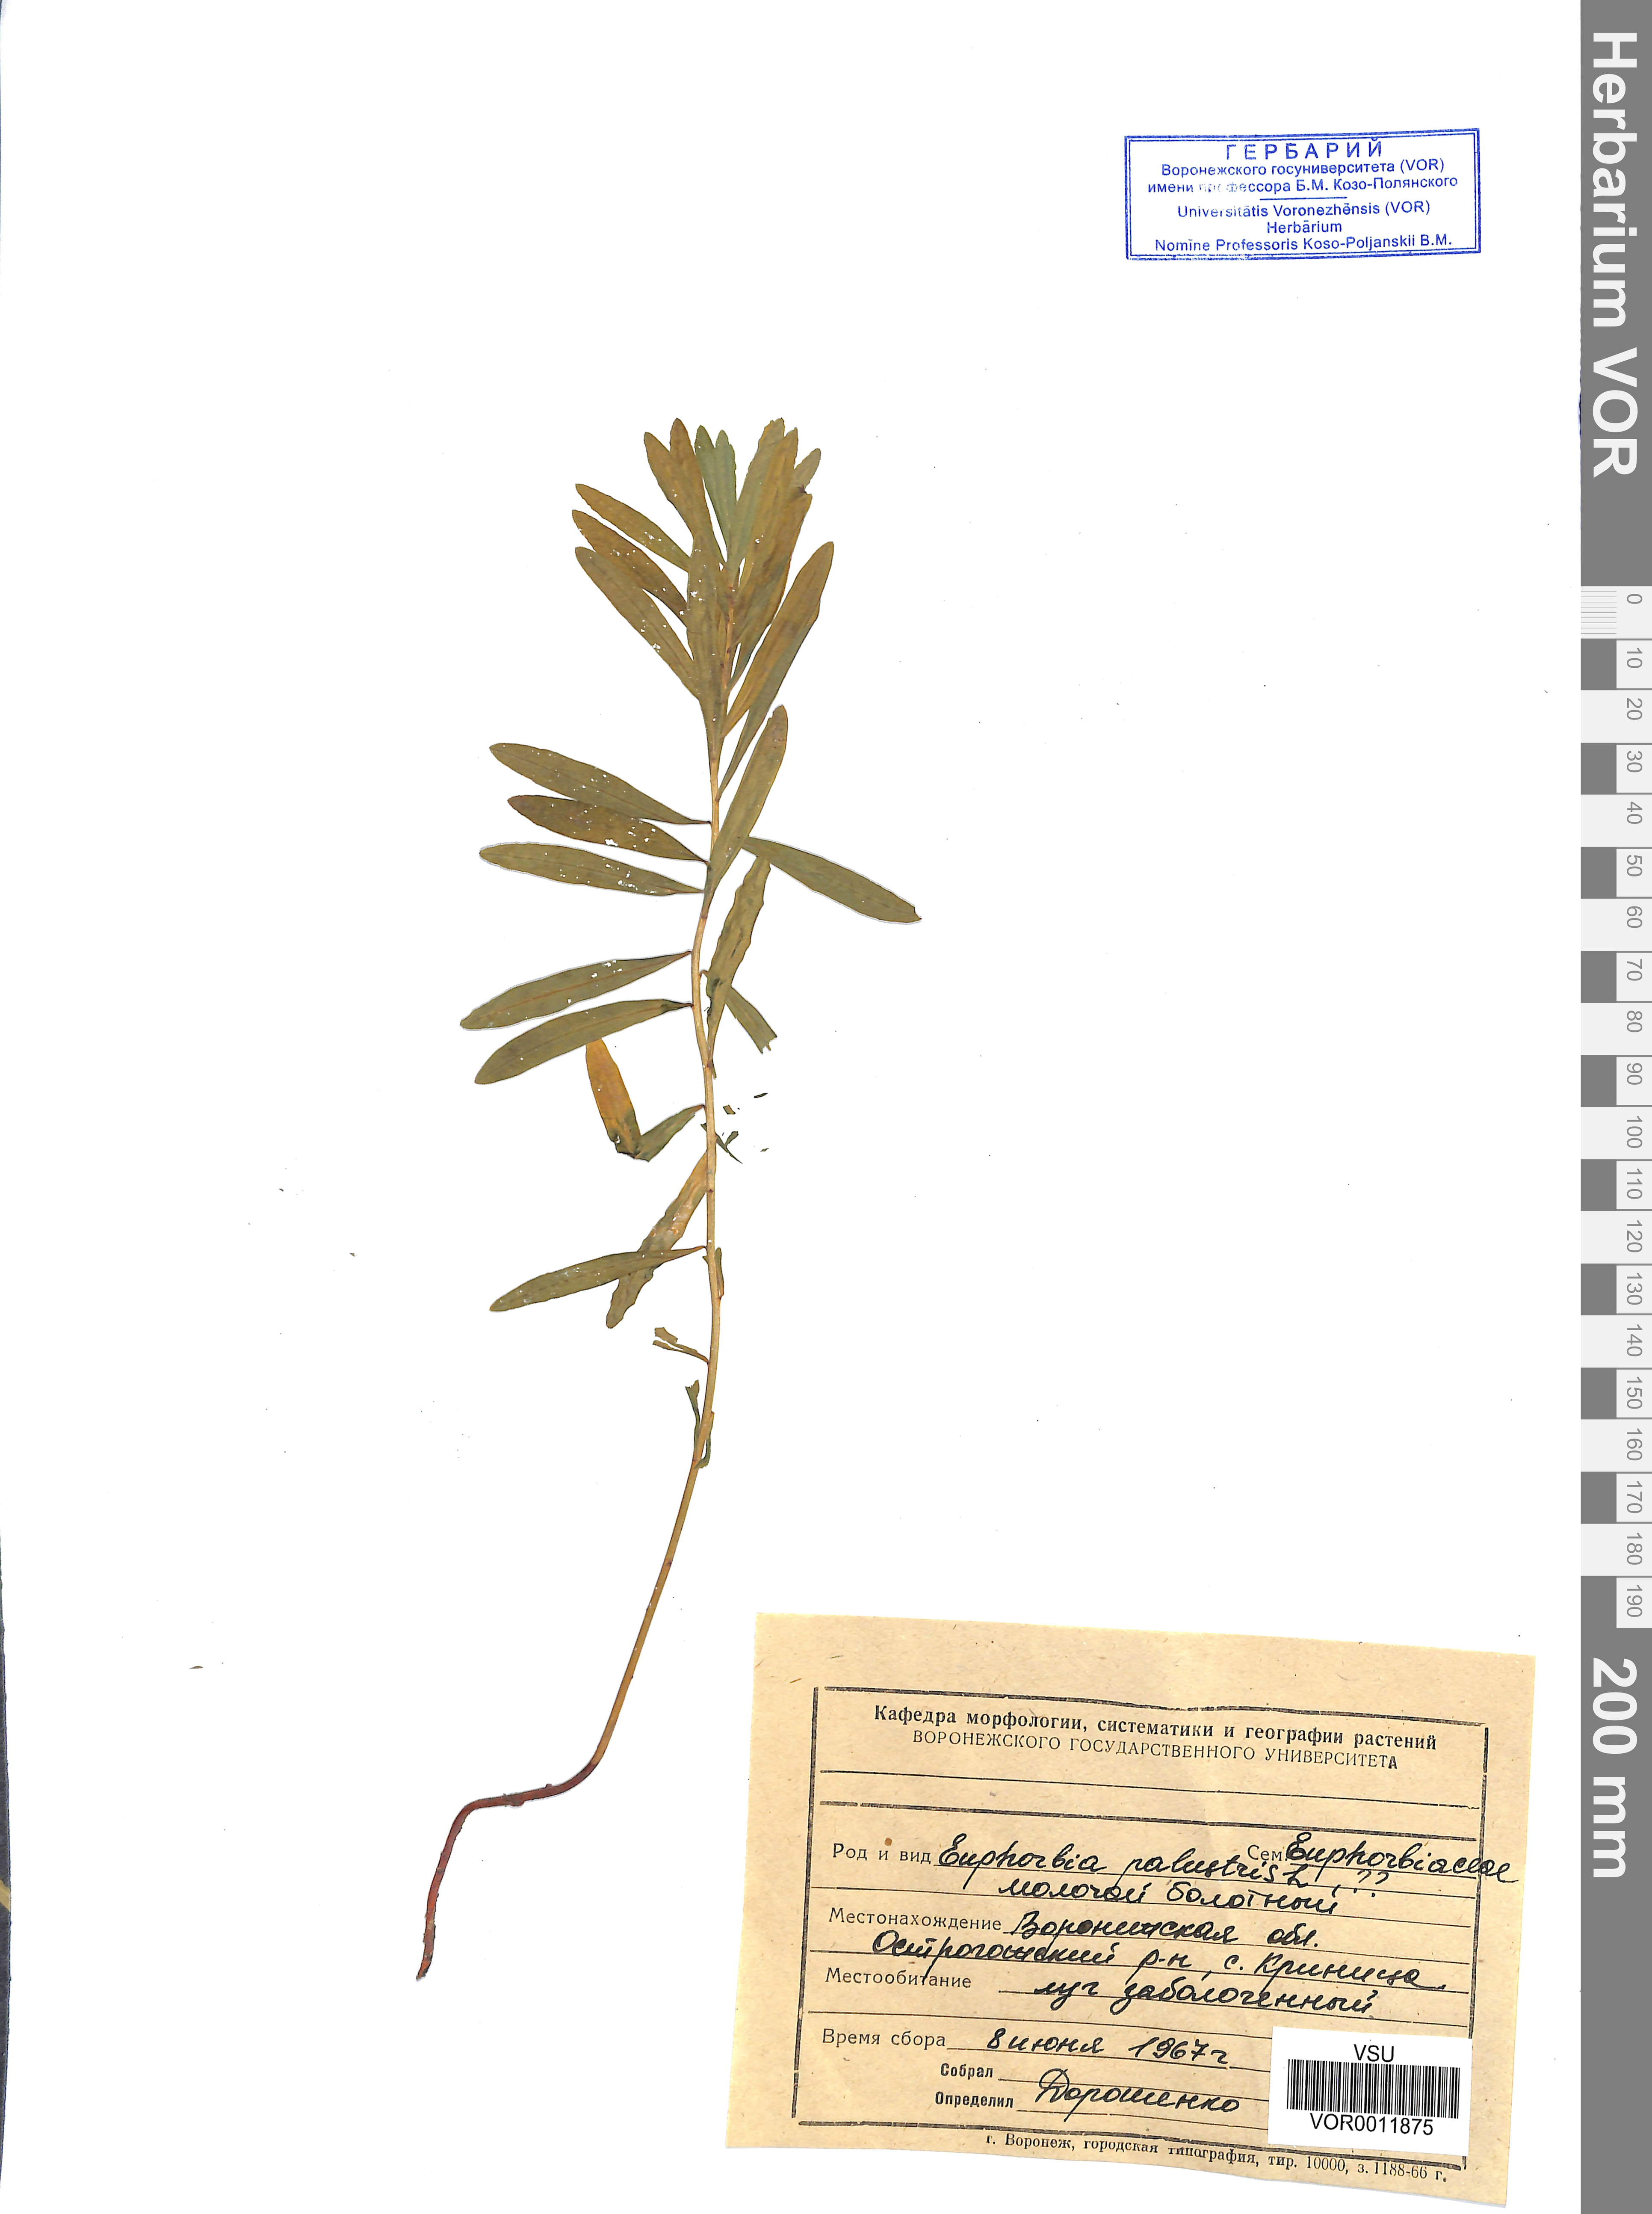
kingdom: Plantae
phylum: Tracheophyta
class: Magnoliopsida
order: Malpighiales
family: Euphorbiaceae
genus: Euphorbia
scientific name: Euphorbia palustris
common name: Marsh spurge
